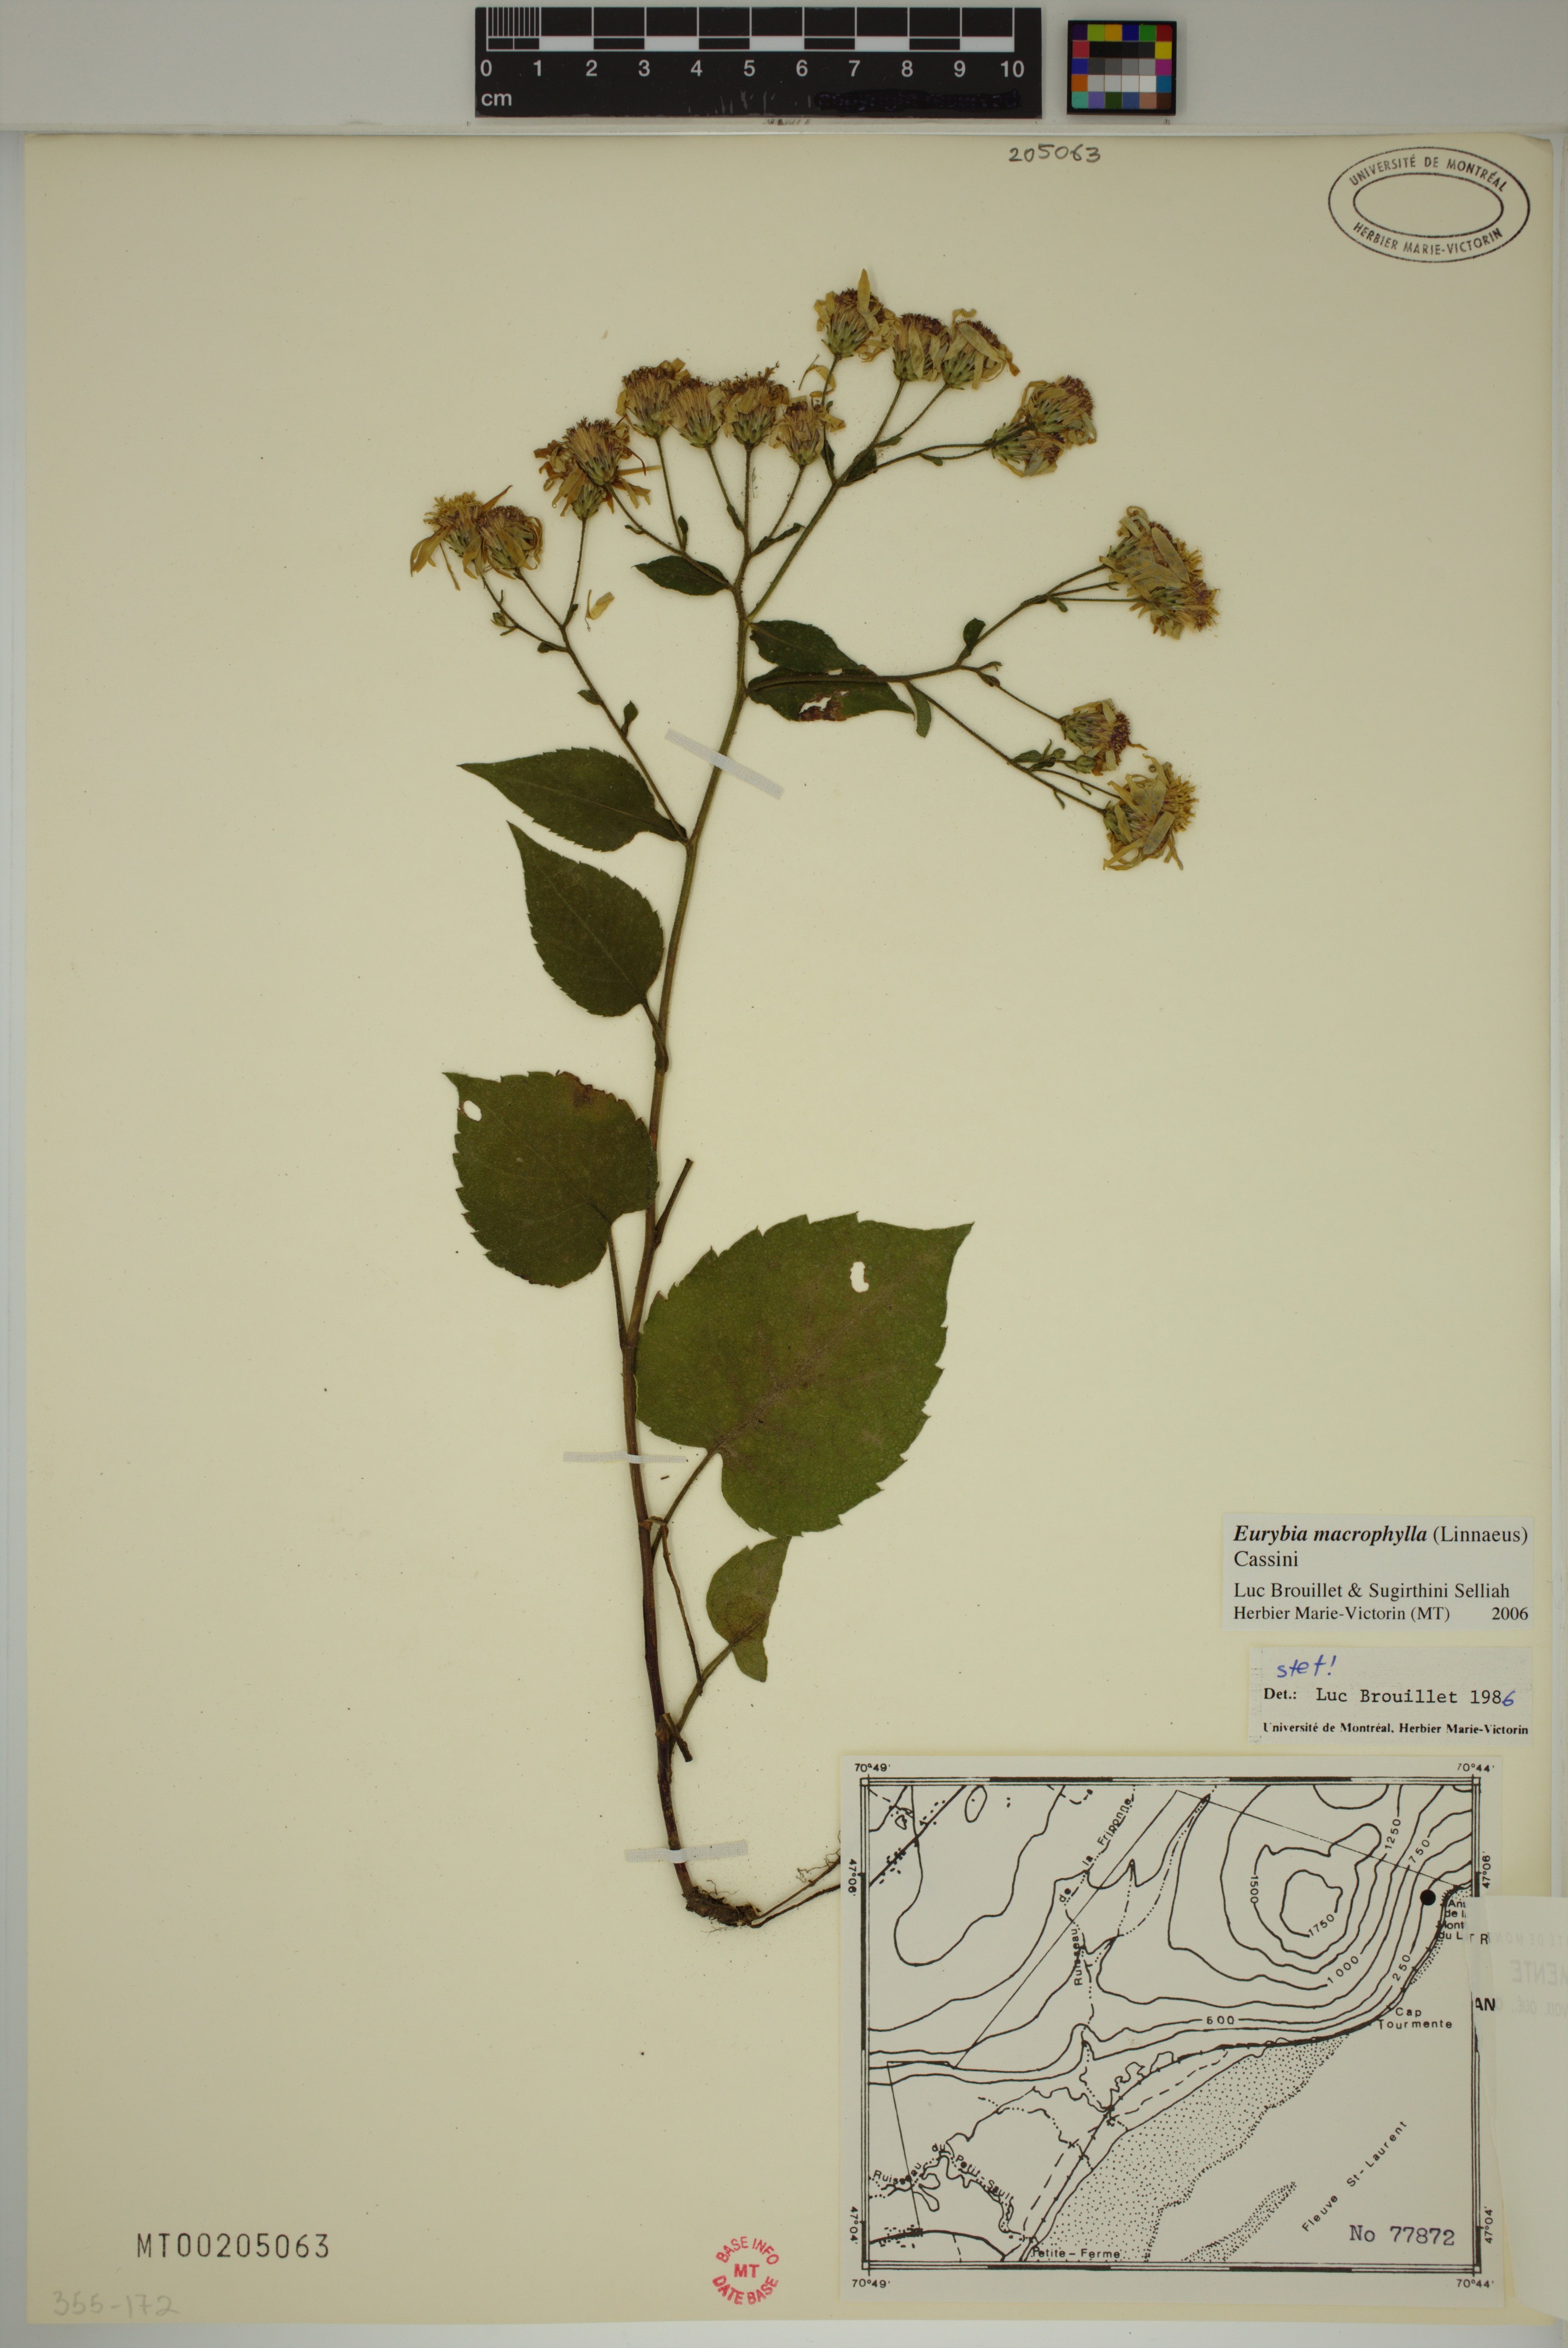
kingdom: Plantae
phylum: Tracheophyta
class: Magnoliopsida
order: Asterales
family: Asteraceae
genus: Eurybia
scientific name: Eurybia macrophylla
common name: Big-leaved aster
